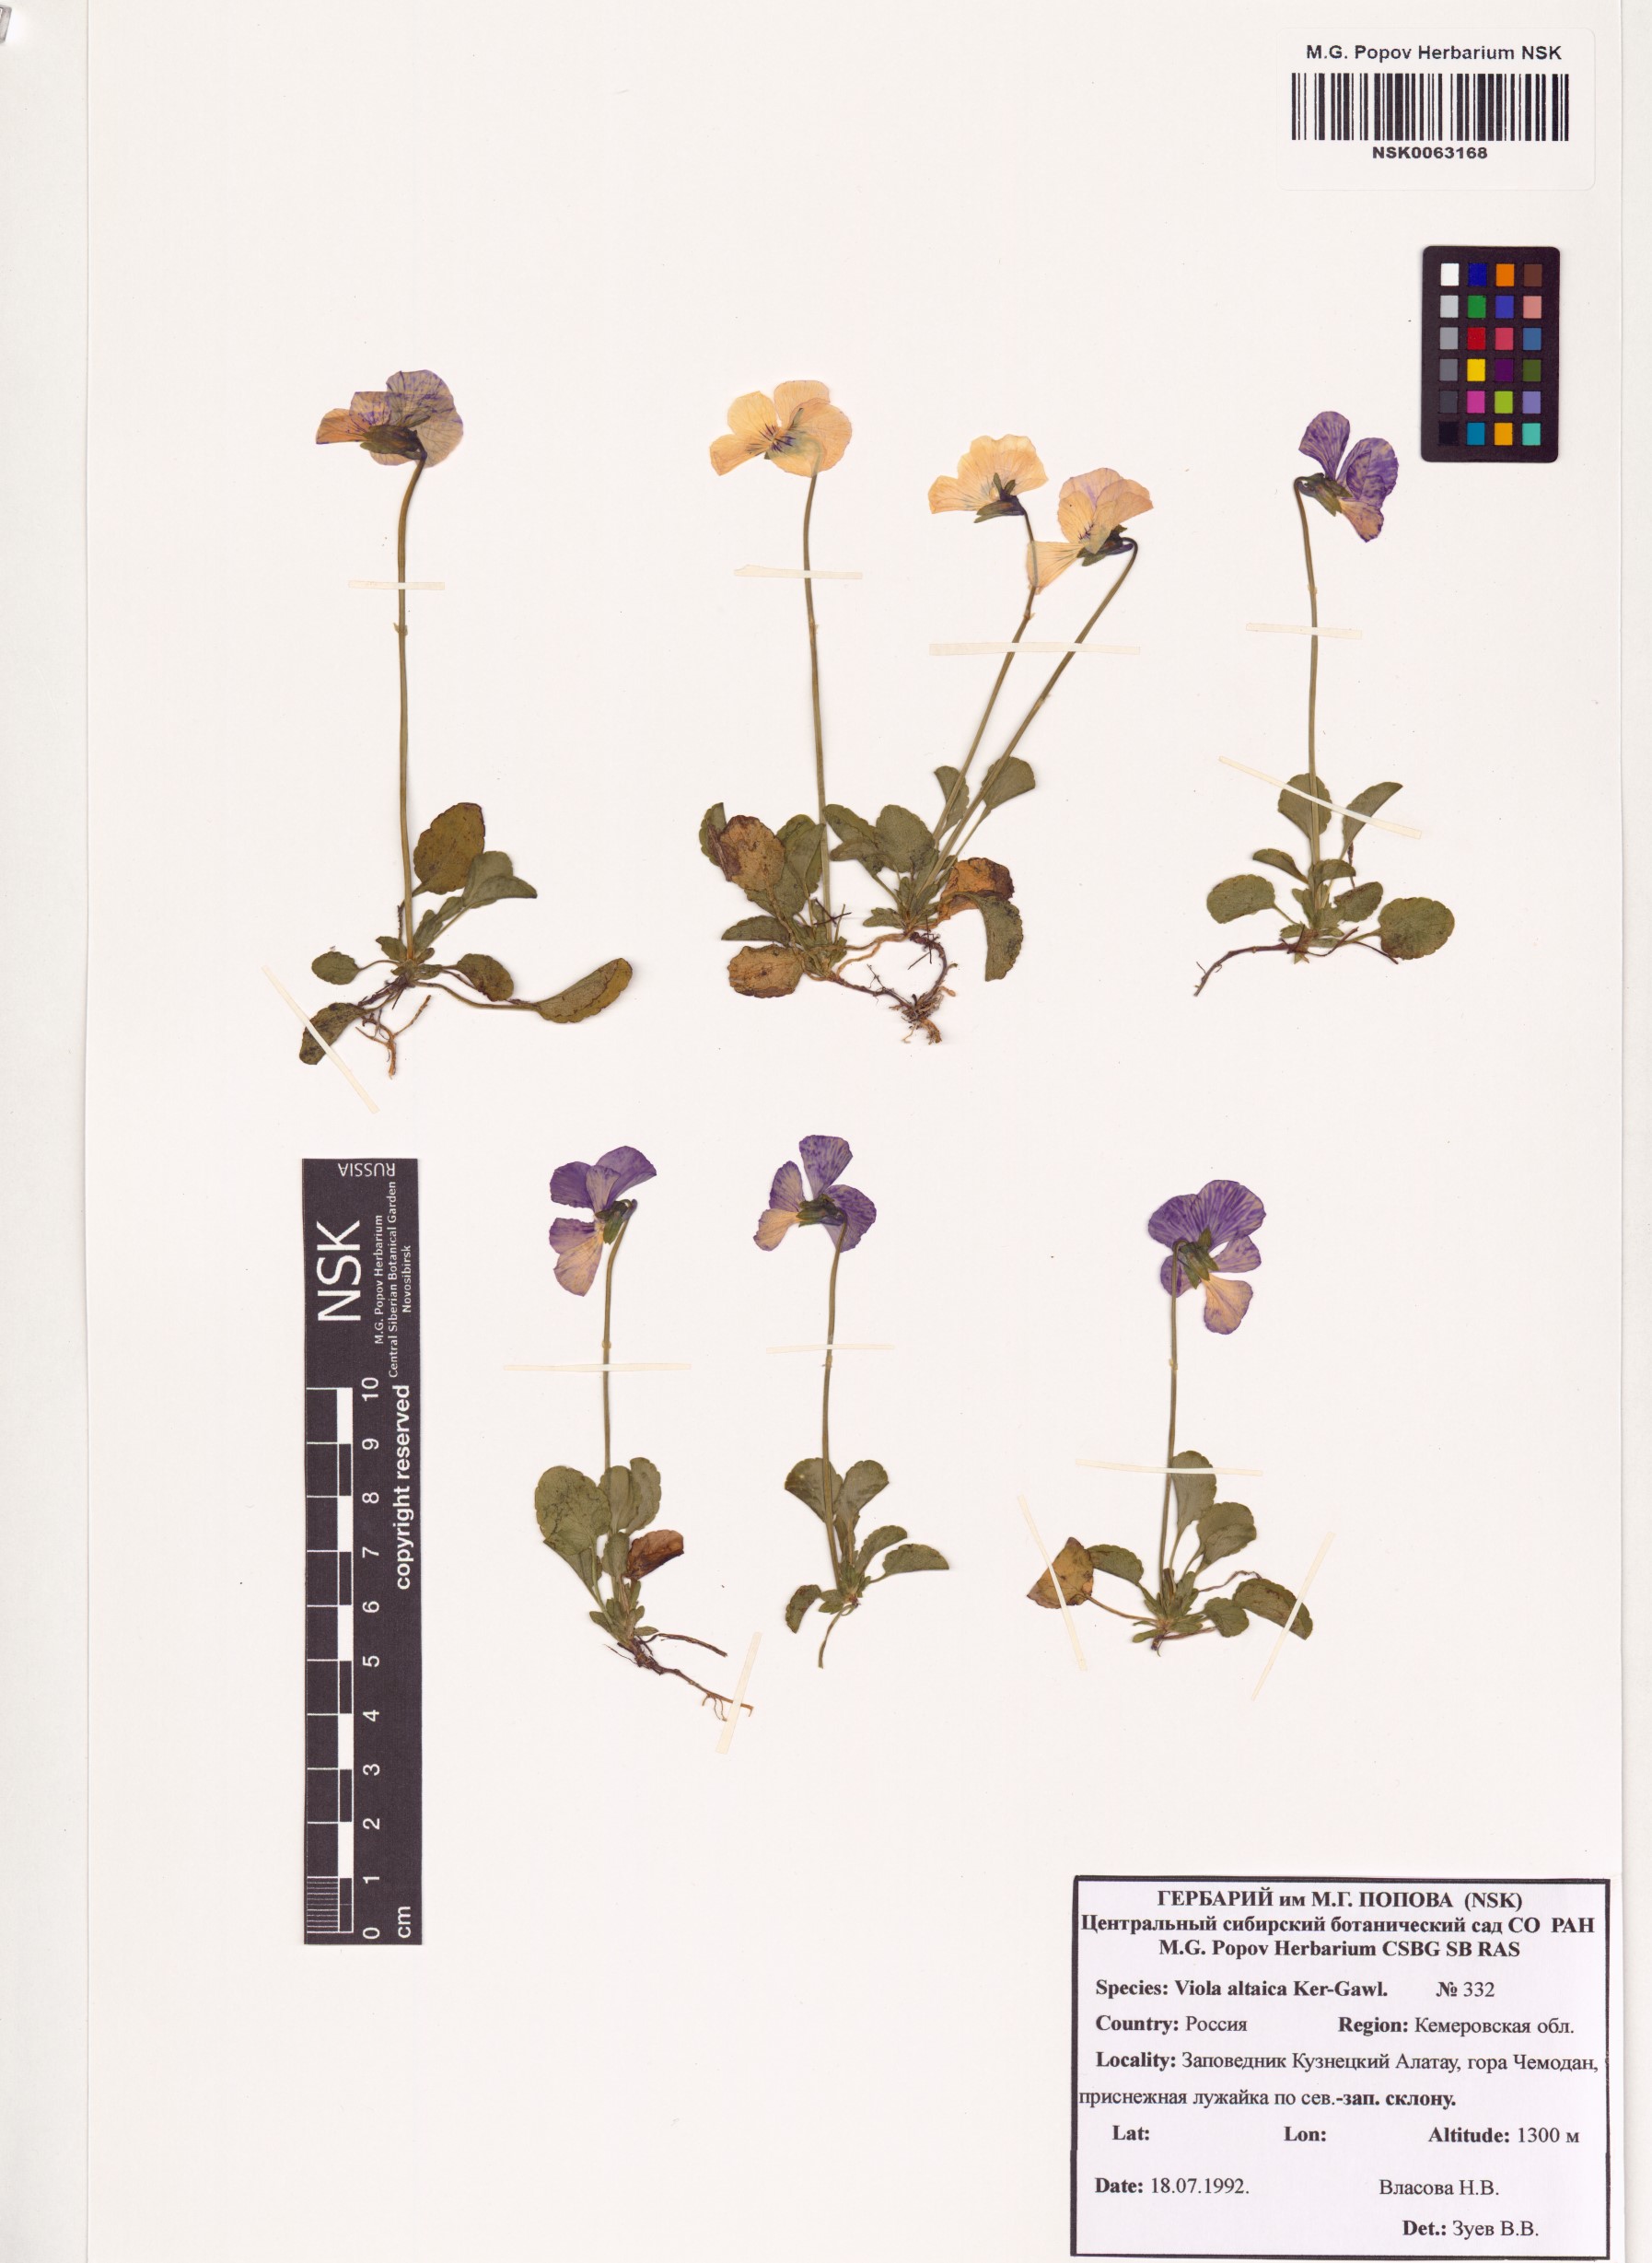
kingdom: Plantae
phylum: Tracheophyta
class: Magnoliopsida
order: Malpighiales
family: Violaceae
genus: Viola
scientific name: Viola altaica
